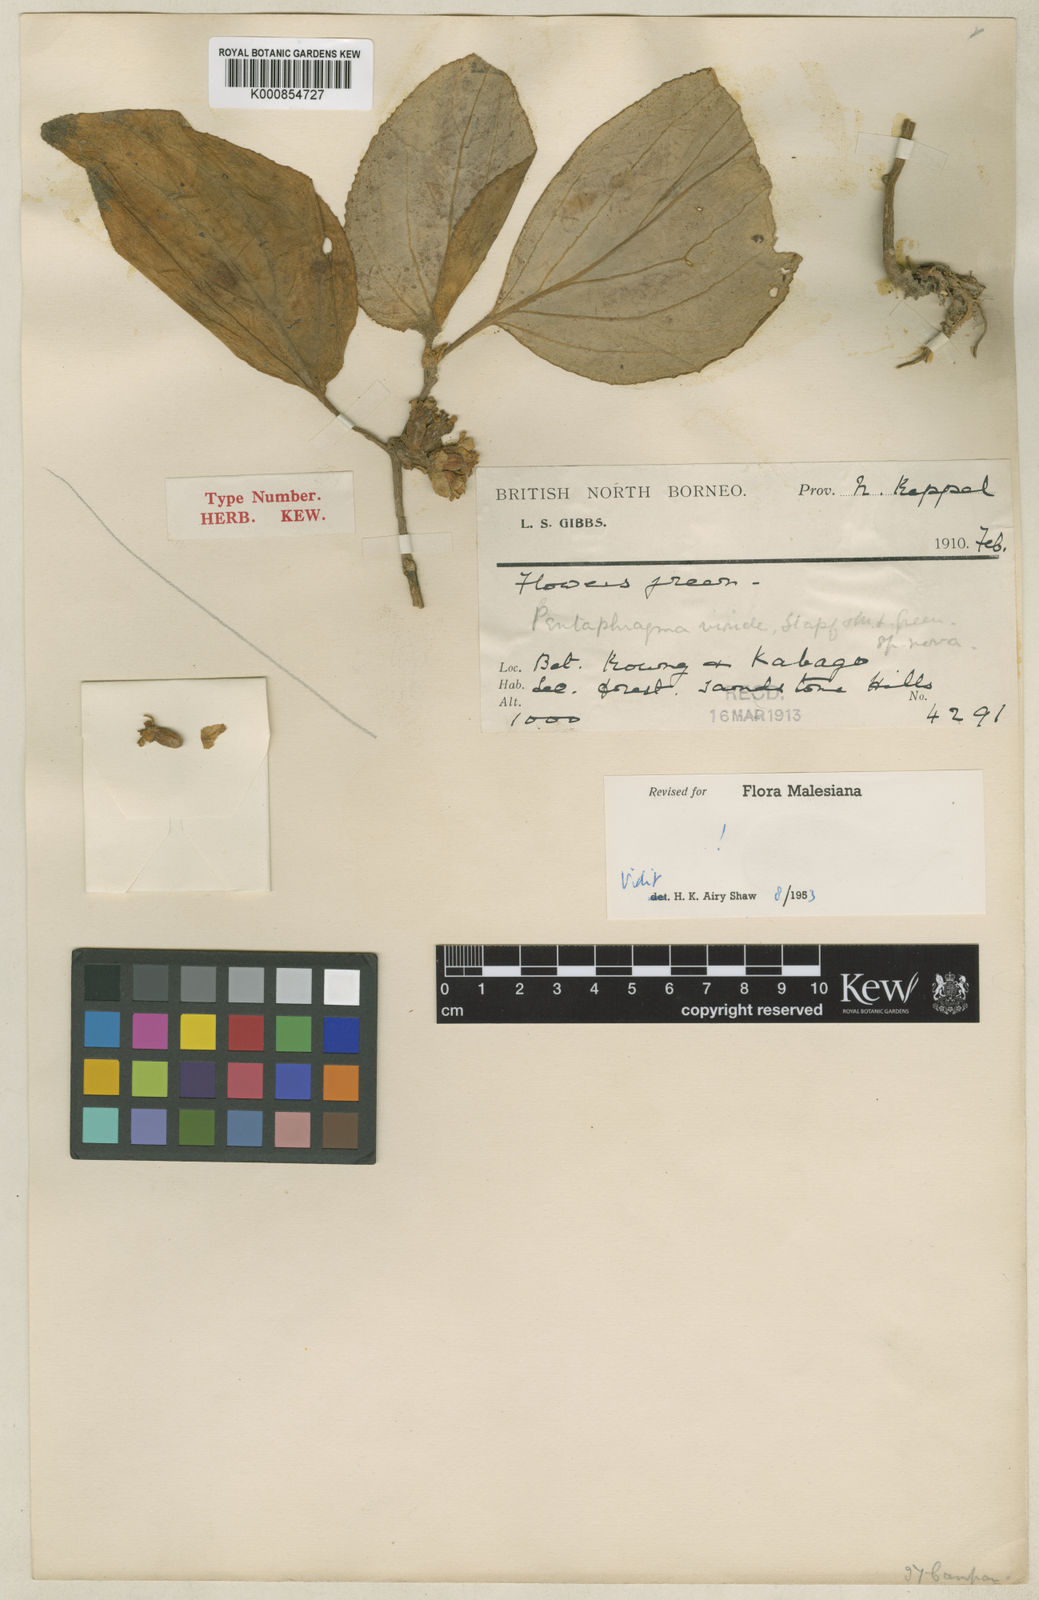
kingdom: Plantae
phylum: Tracheophyta
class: Magnoliopsida
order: Asterales
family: Pentaphragmataceae
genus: Pentaphragma
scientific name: Pentaphragma viride
